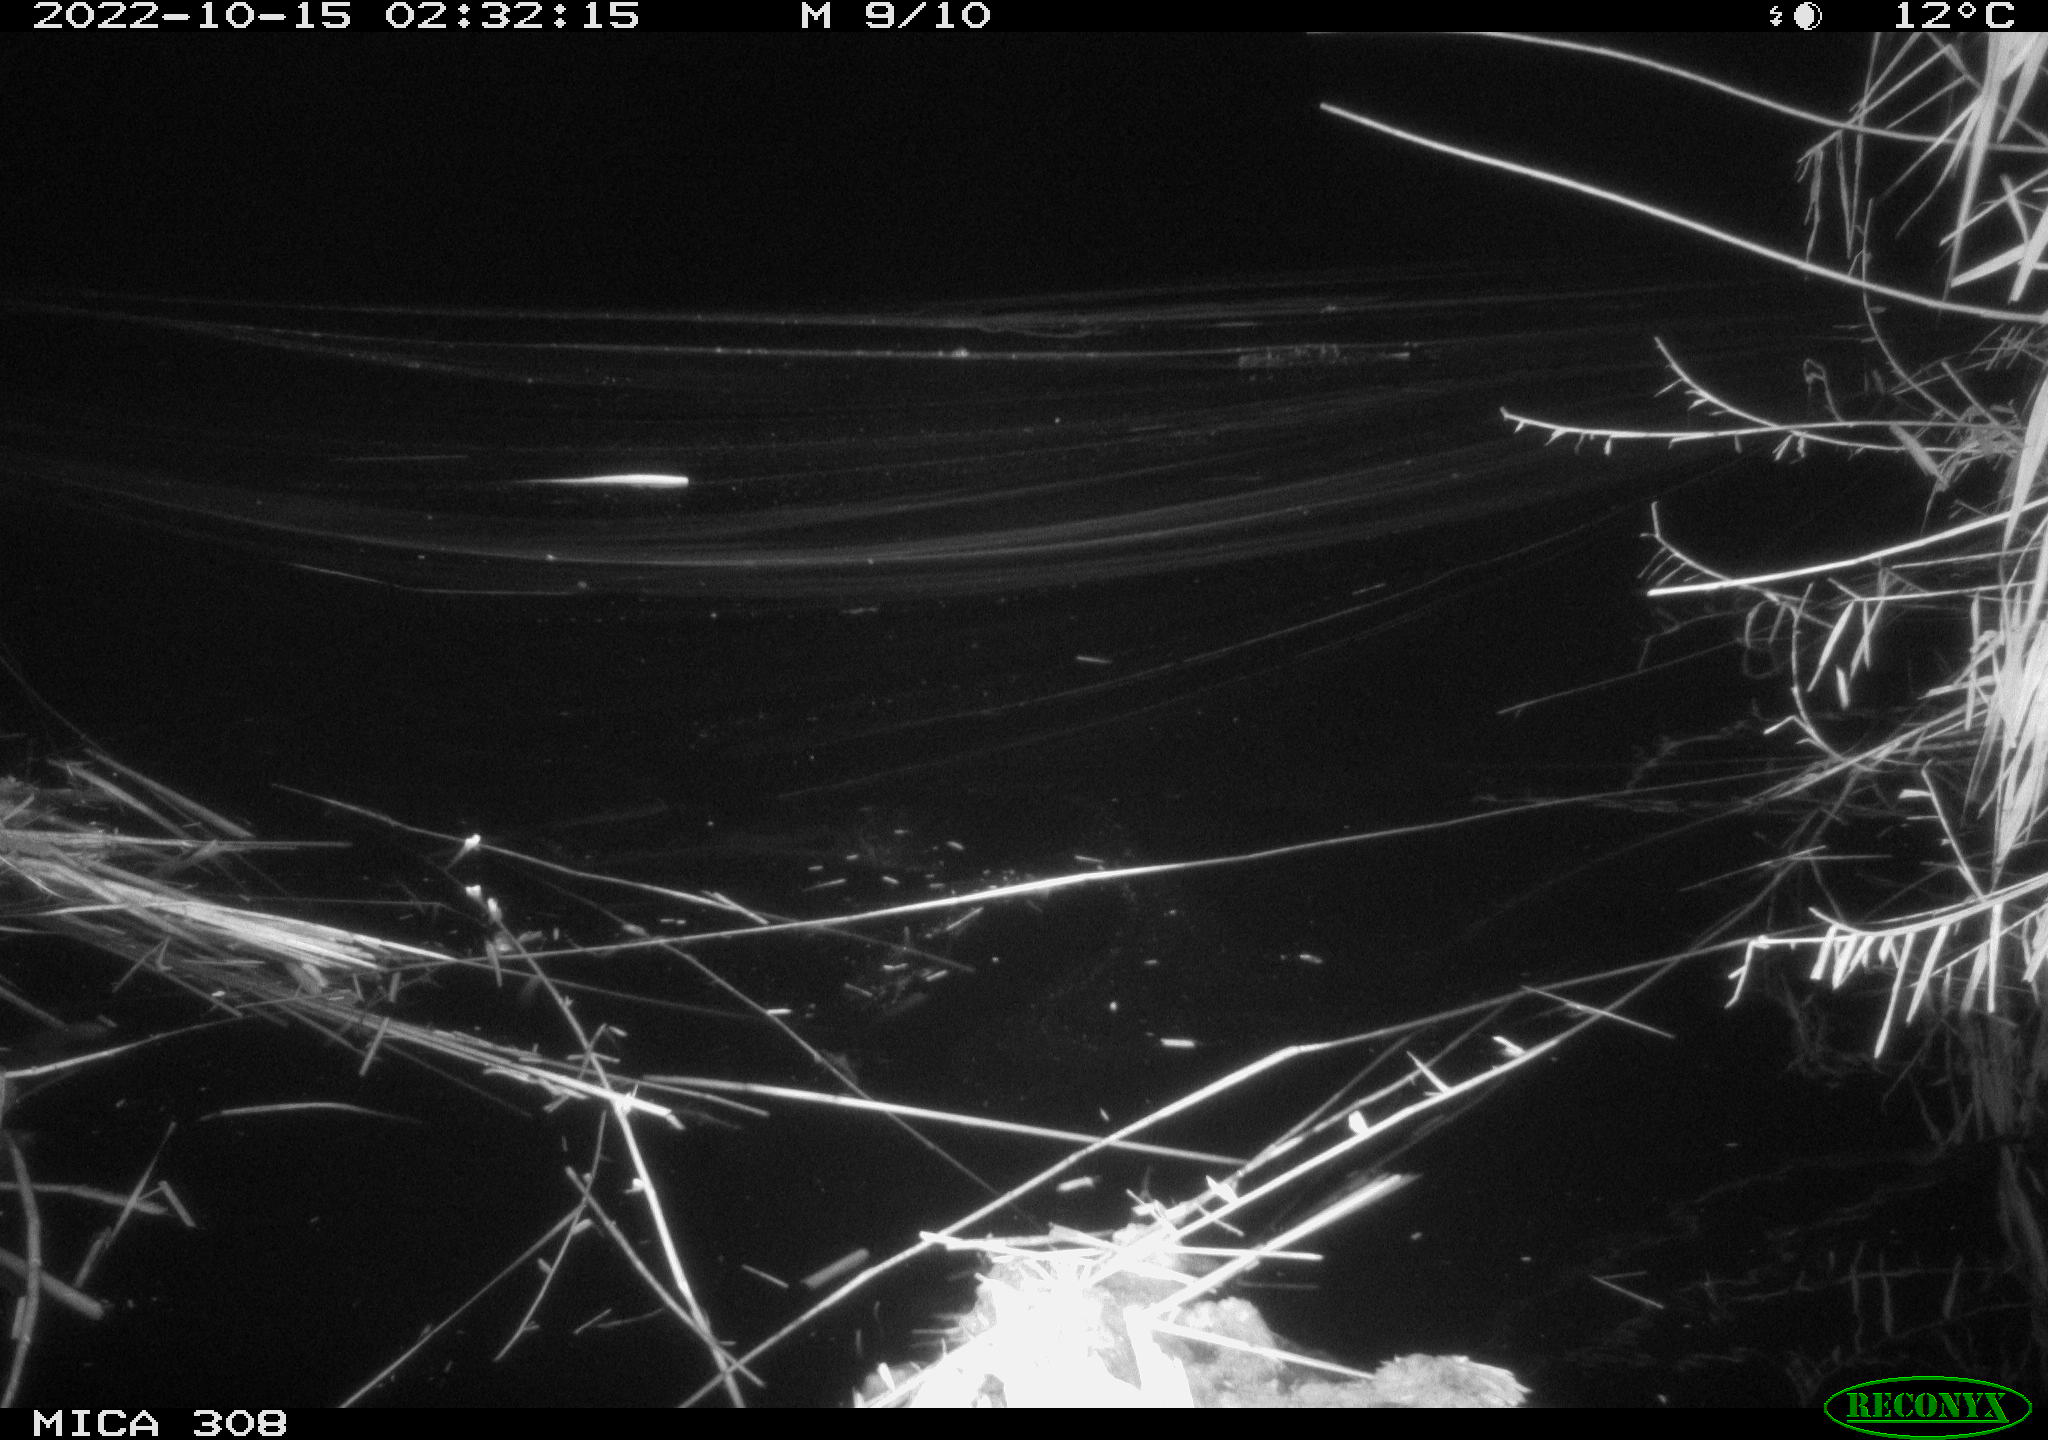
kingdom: Animalia
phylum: Chordata
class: Mammalia
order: Rodentia
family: Muridae
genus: Rattus
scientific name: Rattus norvegicus
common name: Brown rat
